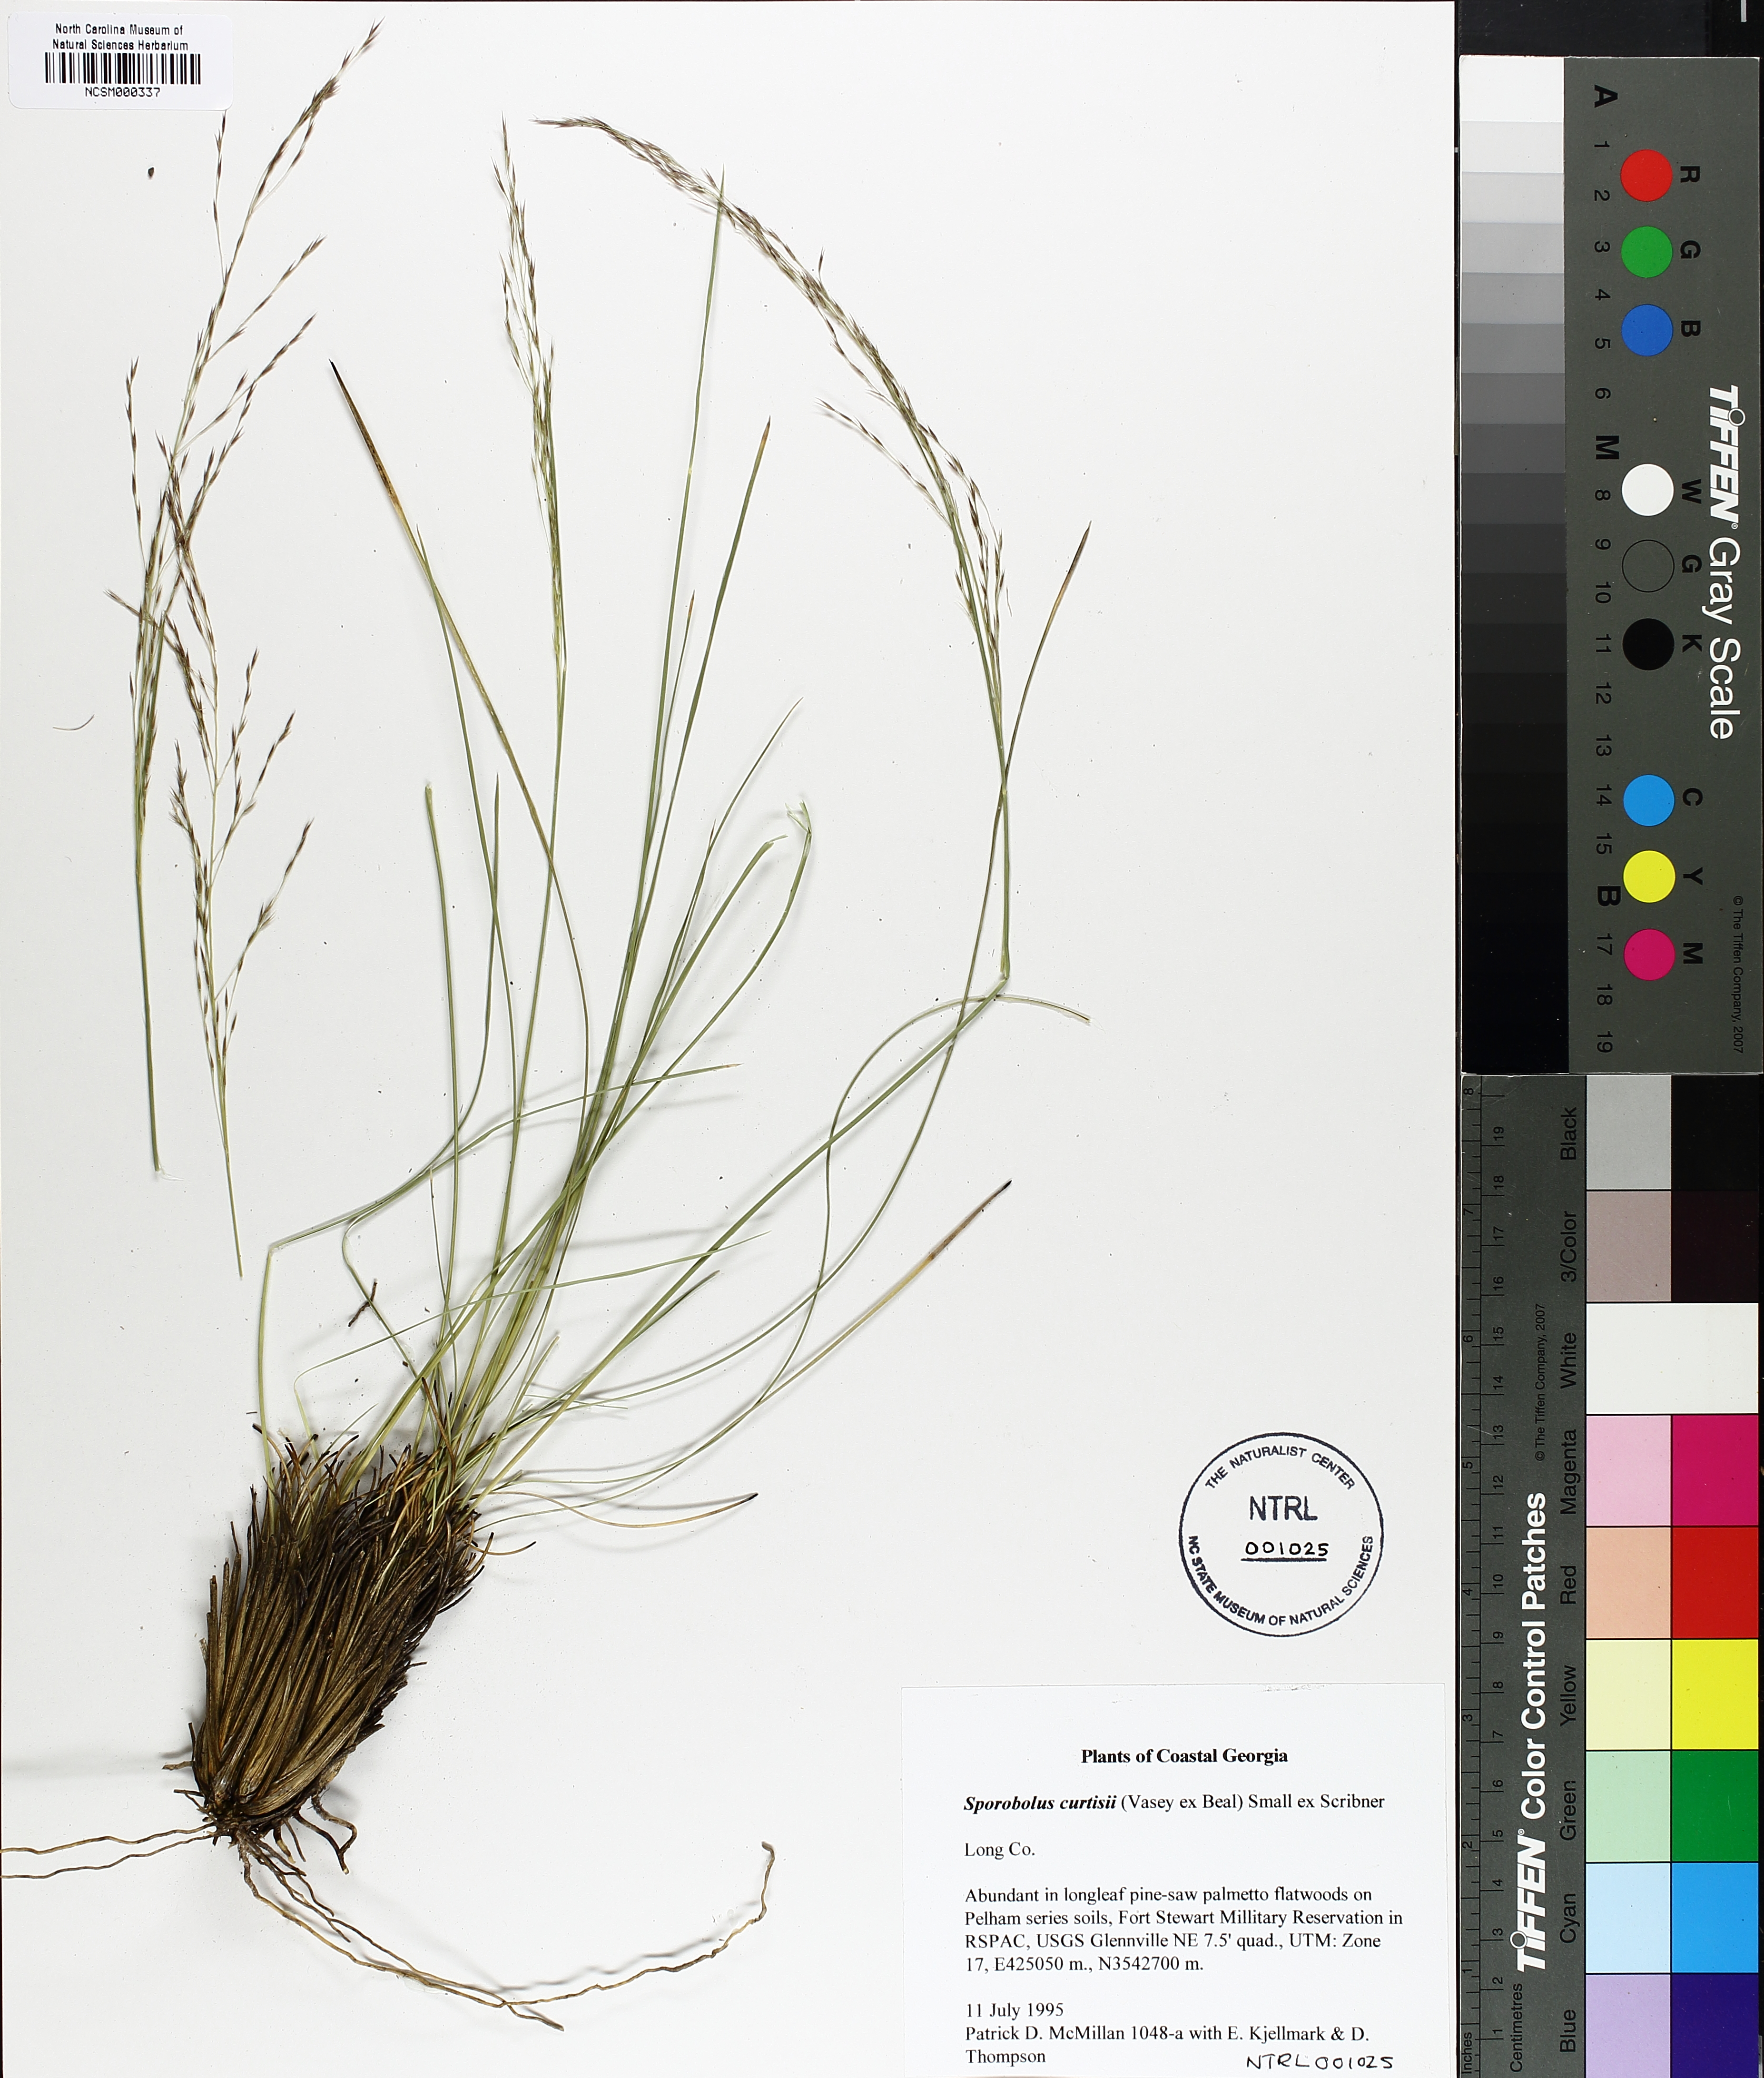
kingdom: Plantae
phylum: Tracheophyta
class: Liliopsida
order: Poales
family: Poaceae
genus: Sporobolus
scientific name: Sporobolus curtissii
